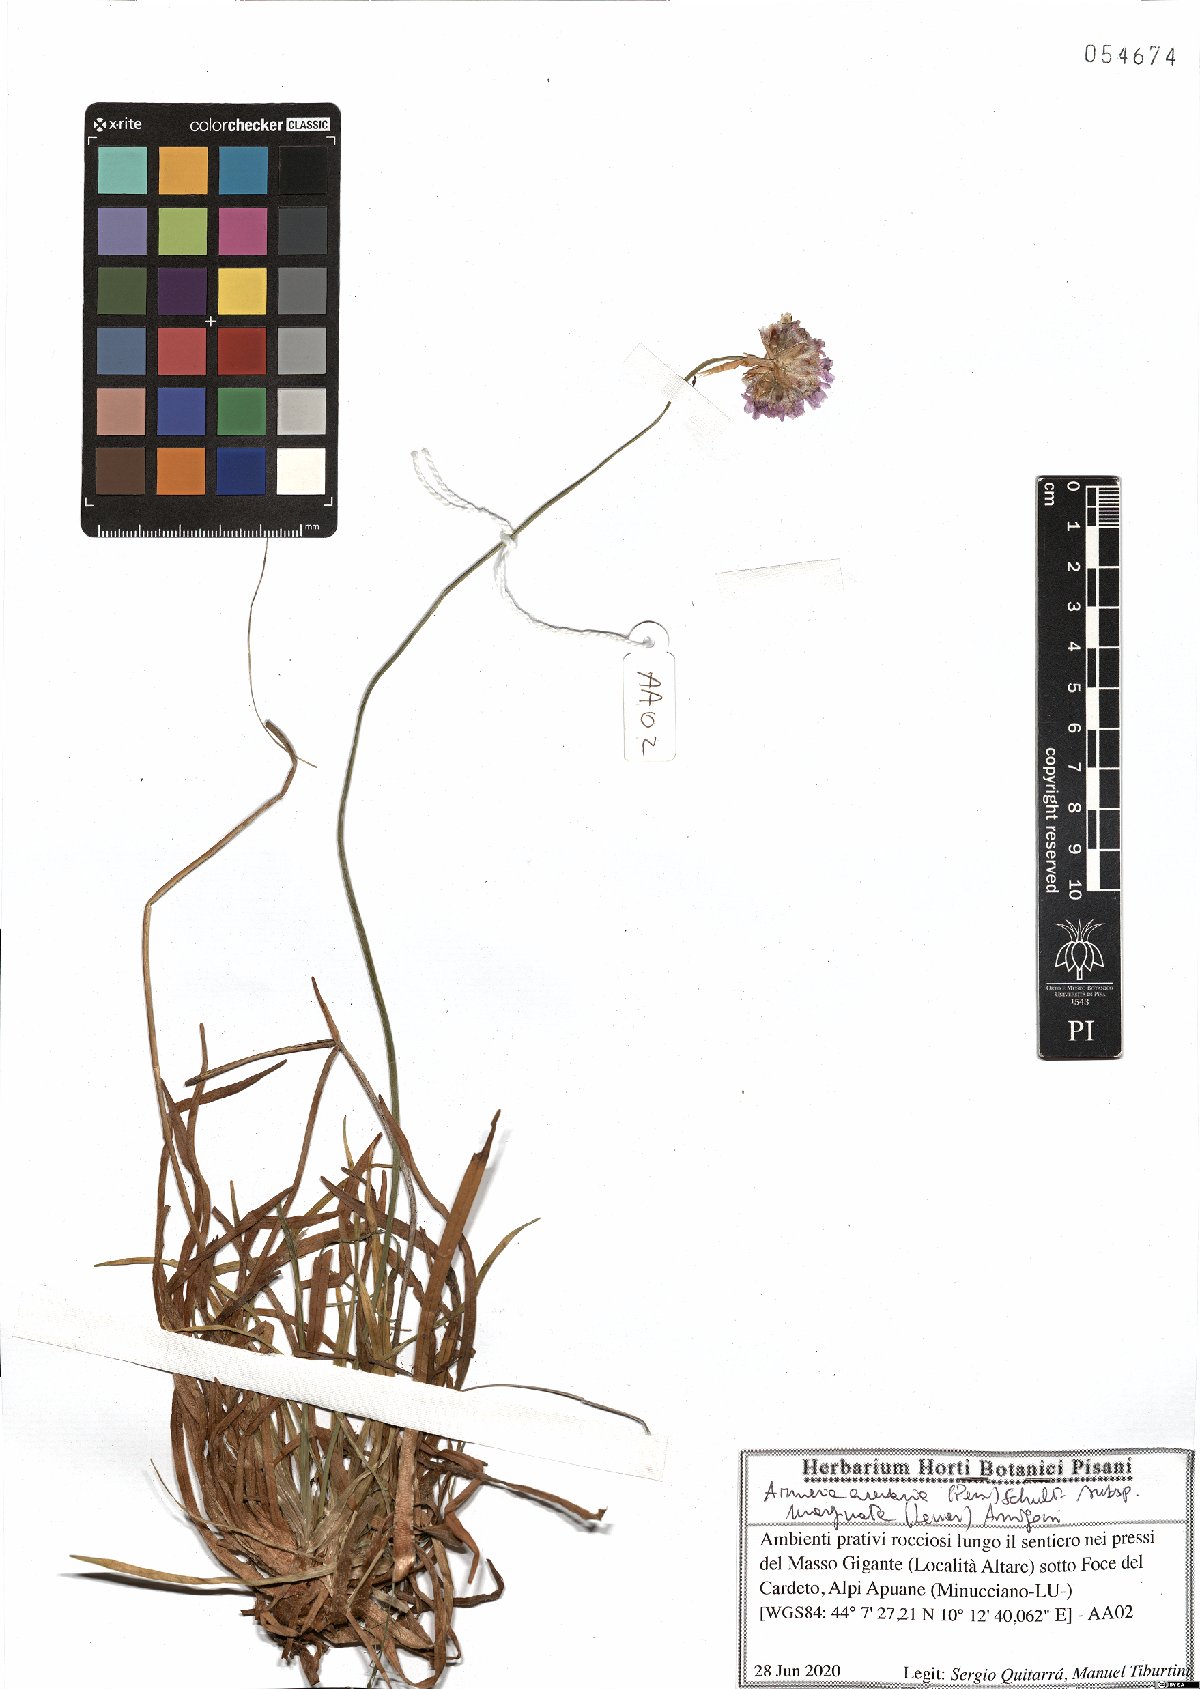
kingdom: Plantae
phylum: Tracheophyta
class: Magnoliopsida
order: Caryophyllales
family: Plumbaginaceae
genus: Armeria
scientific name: Armeria arenaria
